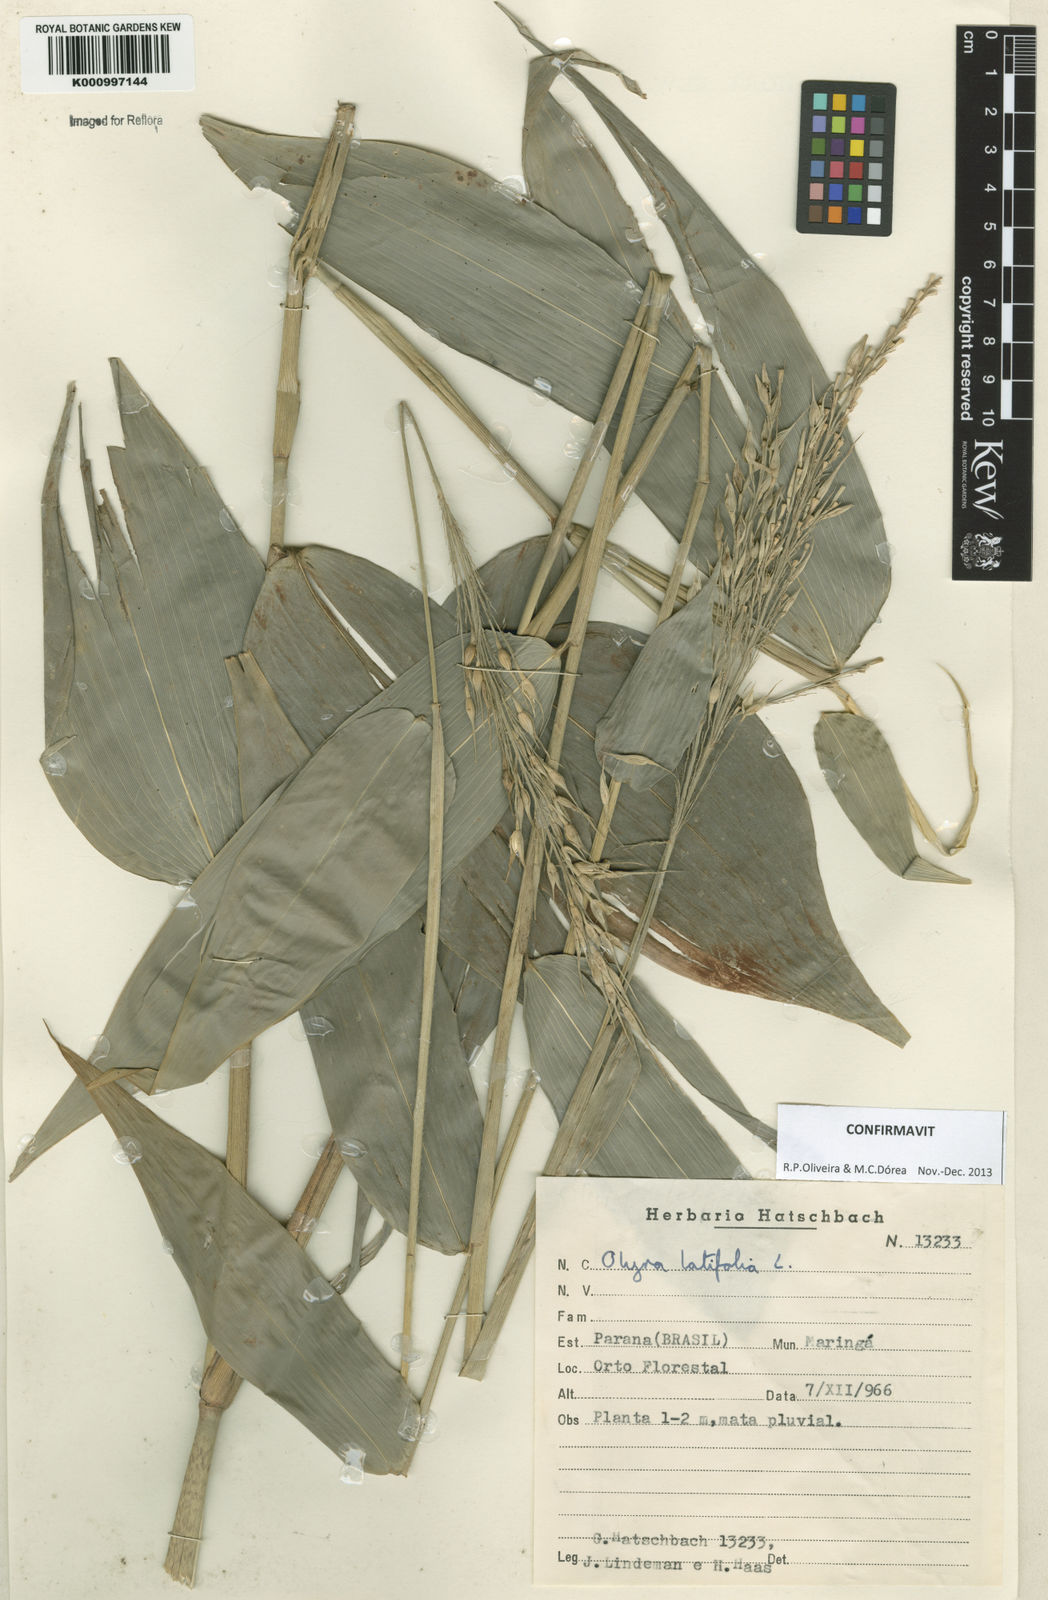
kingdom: Plantae
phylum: Tracheophyta
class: Liliopsida
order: Poales
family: Poaceae
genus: Olyra
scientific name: Olyra latifolia
